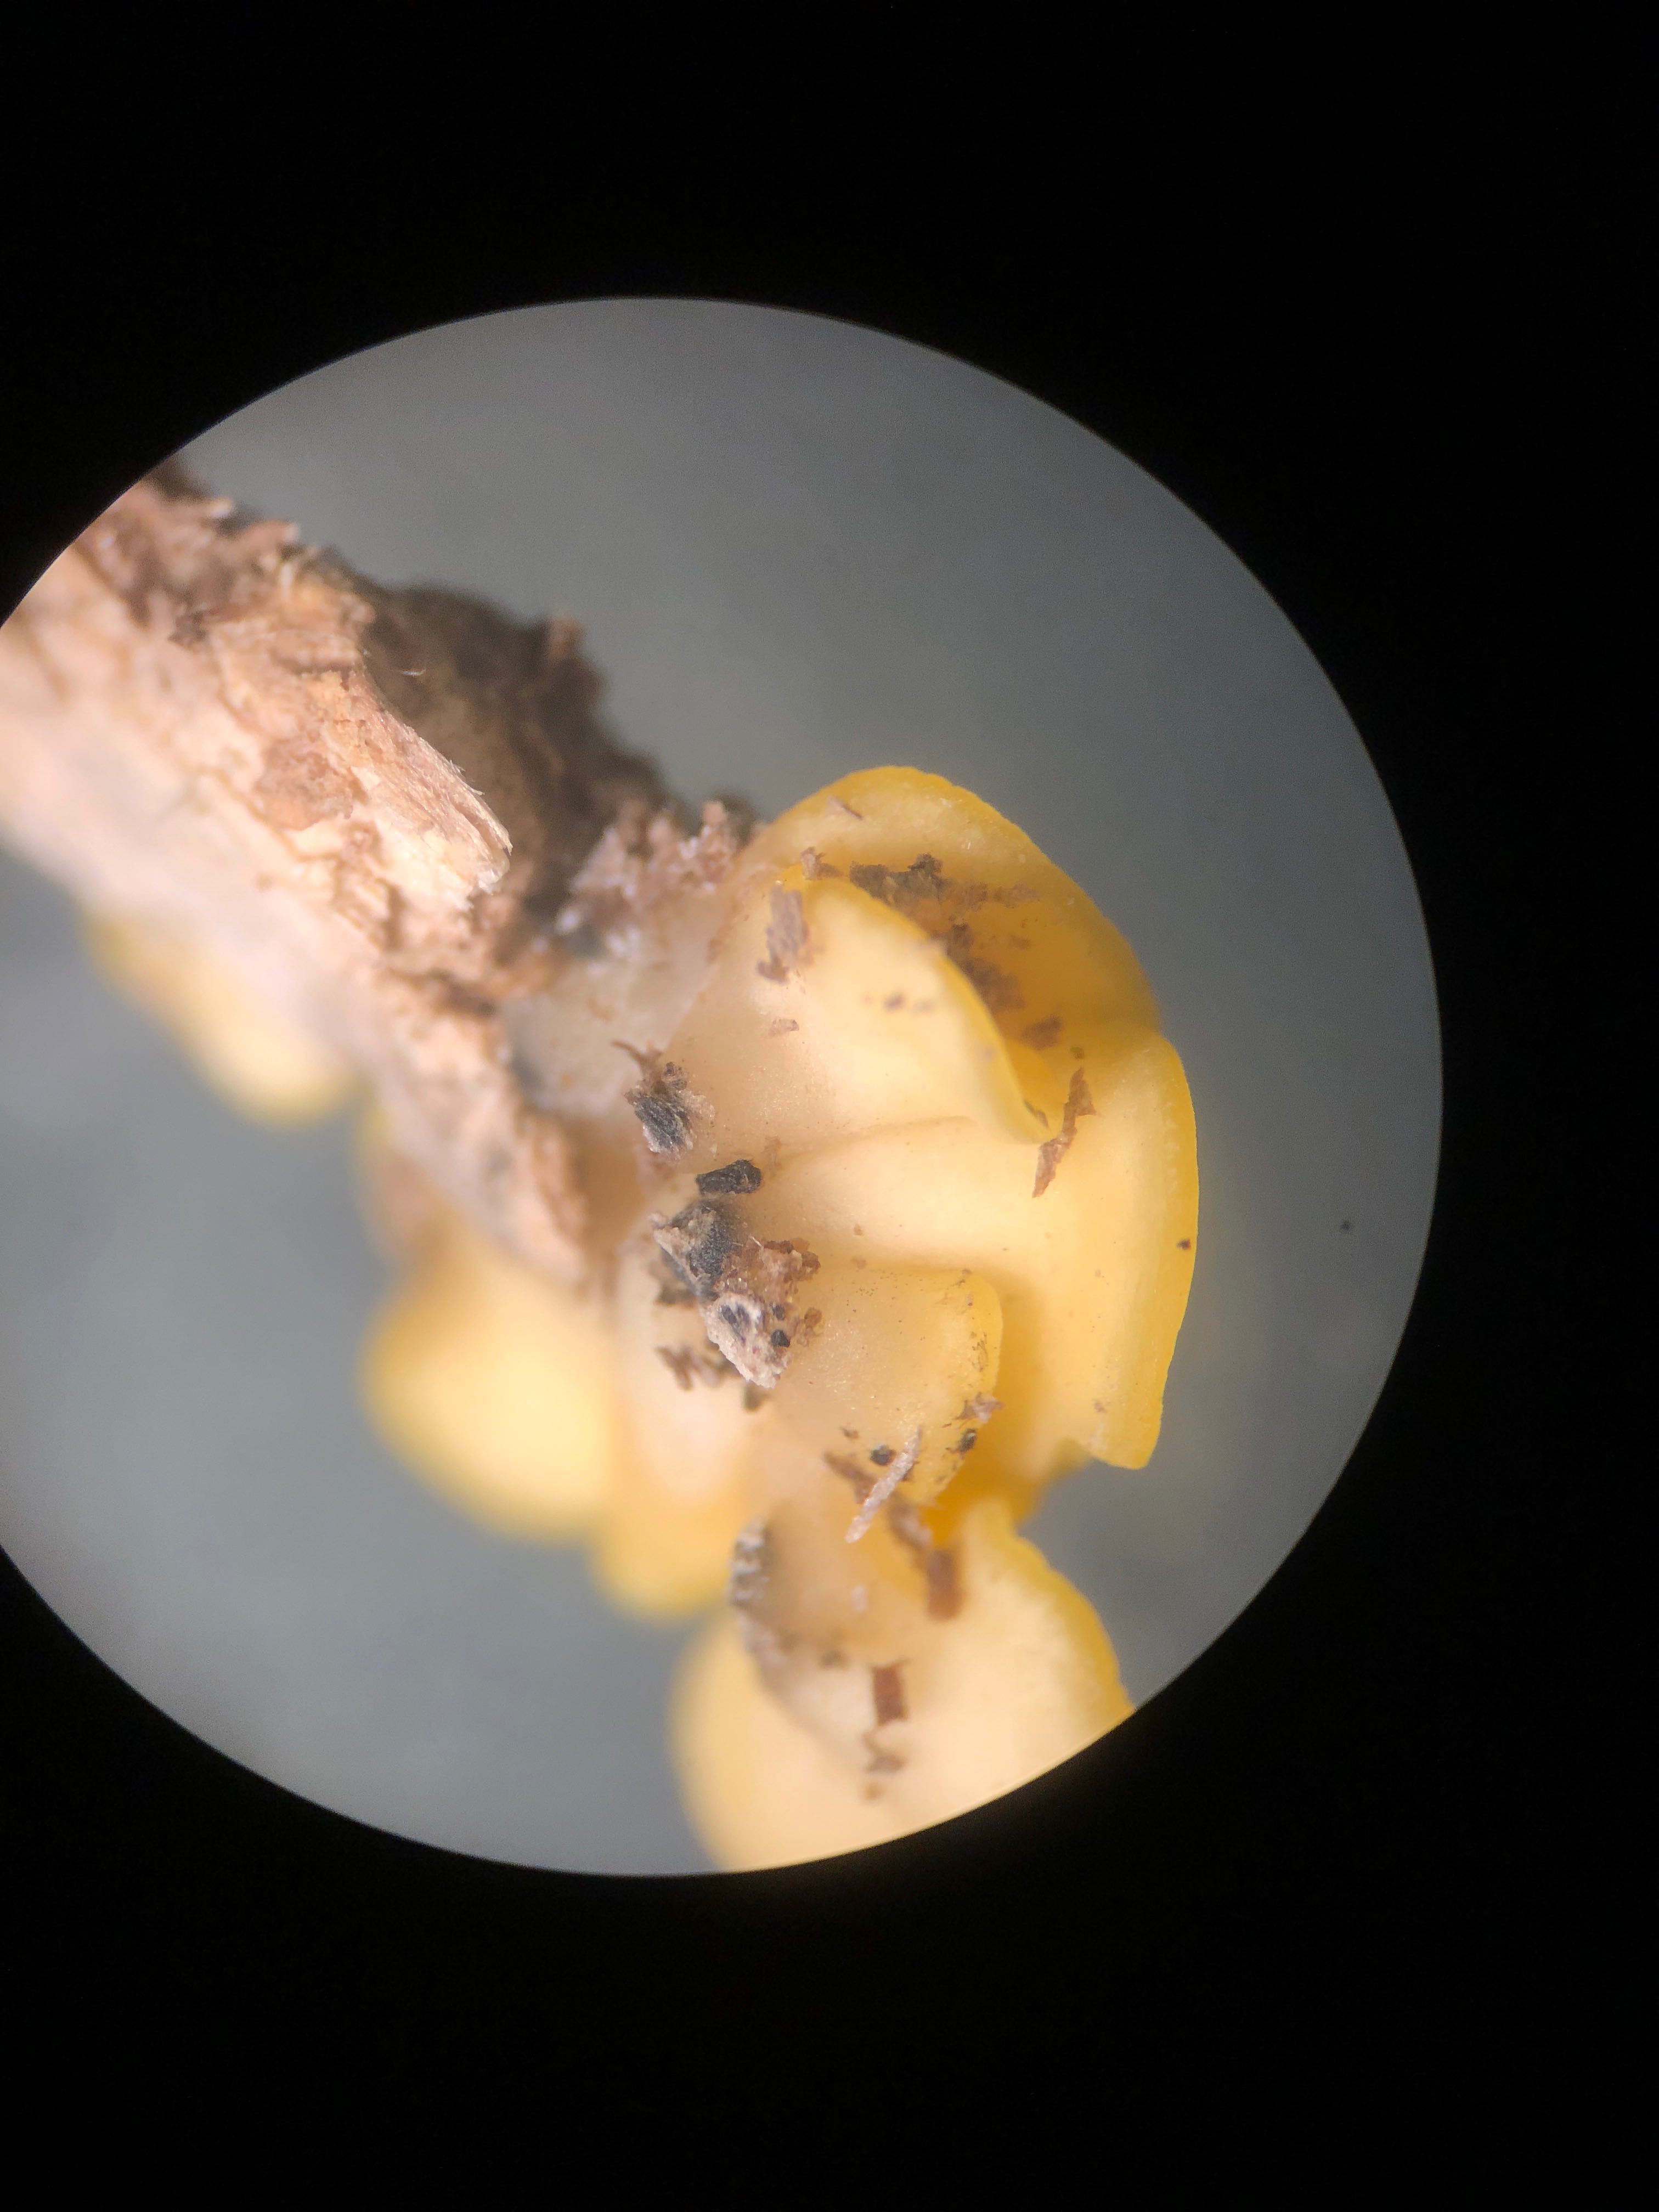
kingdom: Fungi
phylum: Ascomycota
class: Leotiomycetes
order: Helotiales
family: Pezizellaceae
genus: Calycina
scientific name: Calycina citrina
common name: almindelig gulskive
